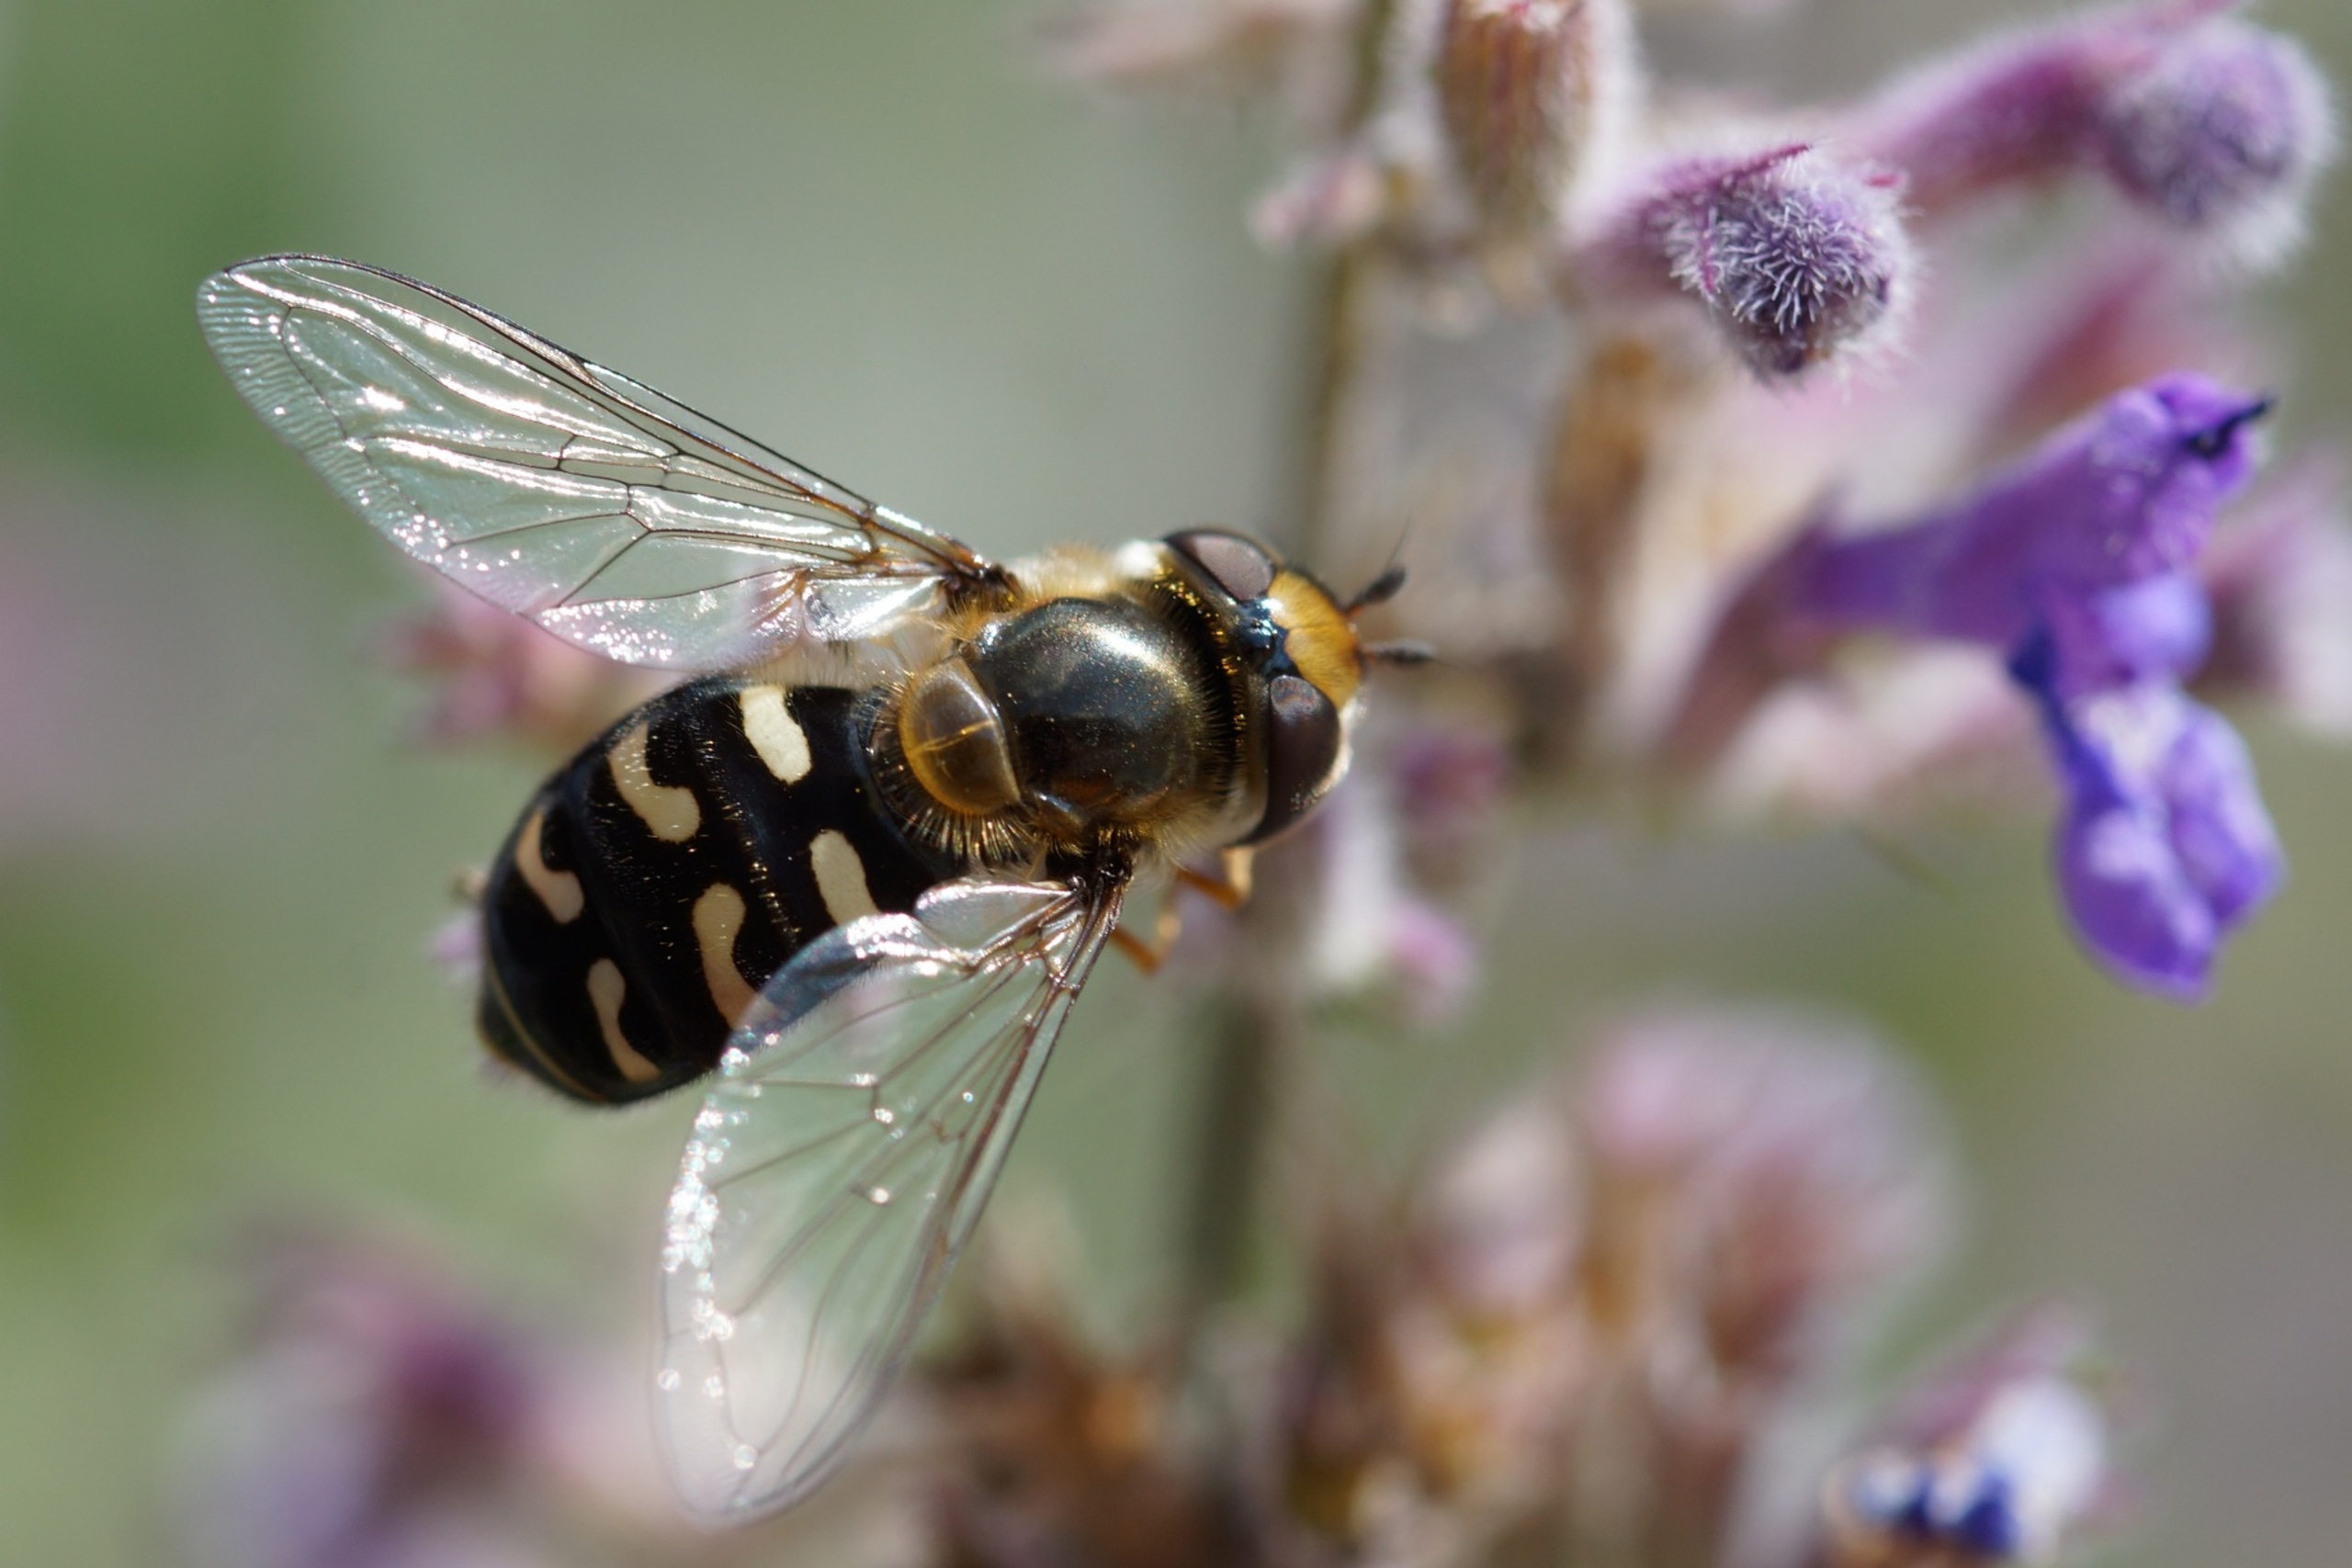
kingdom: Animalia
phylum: Arthropoda
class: Insecta
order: Diptera
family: Syrphidae
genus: Scaeva
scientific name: Scaeva pyrastri
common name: Hvidplettet agersvirreflue
